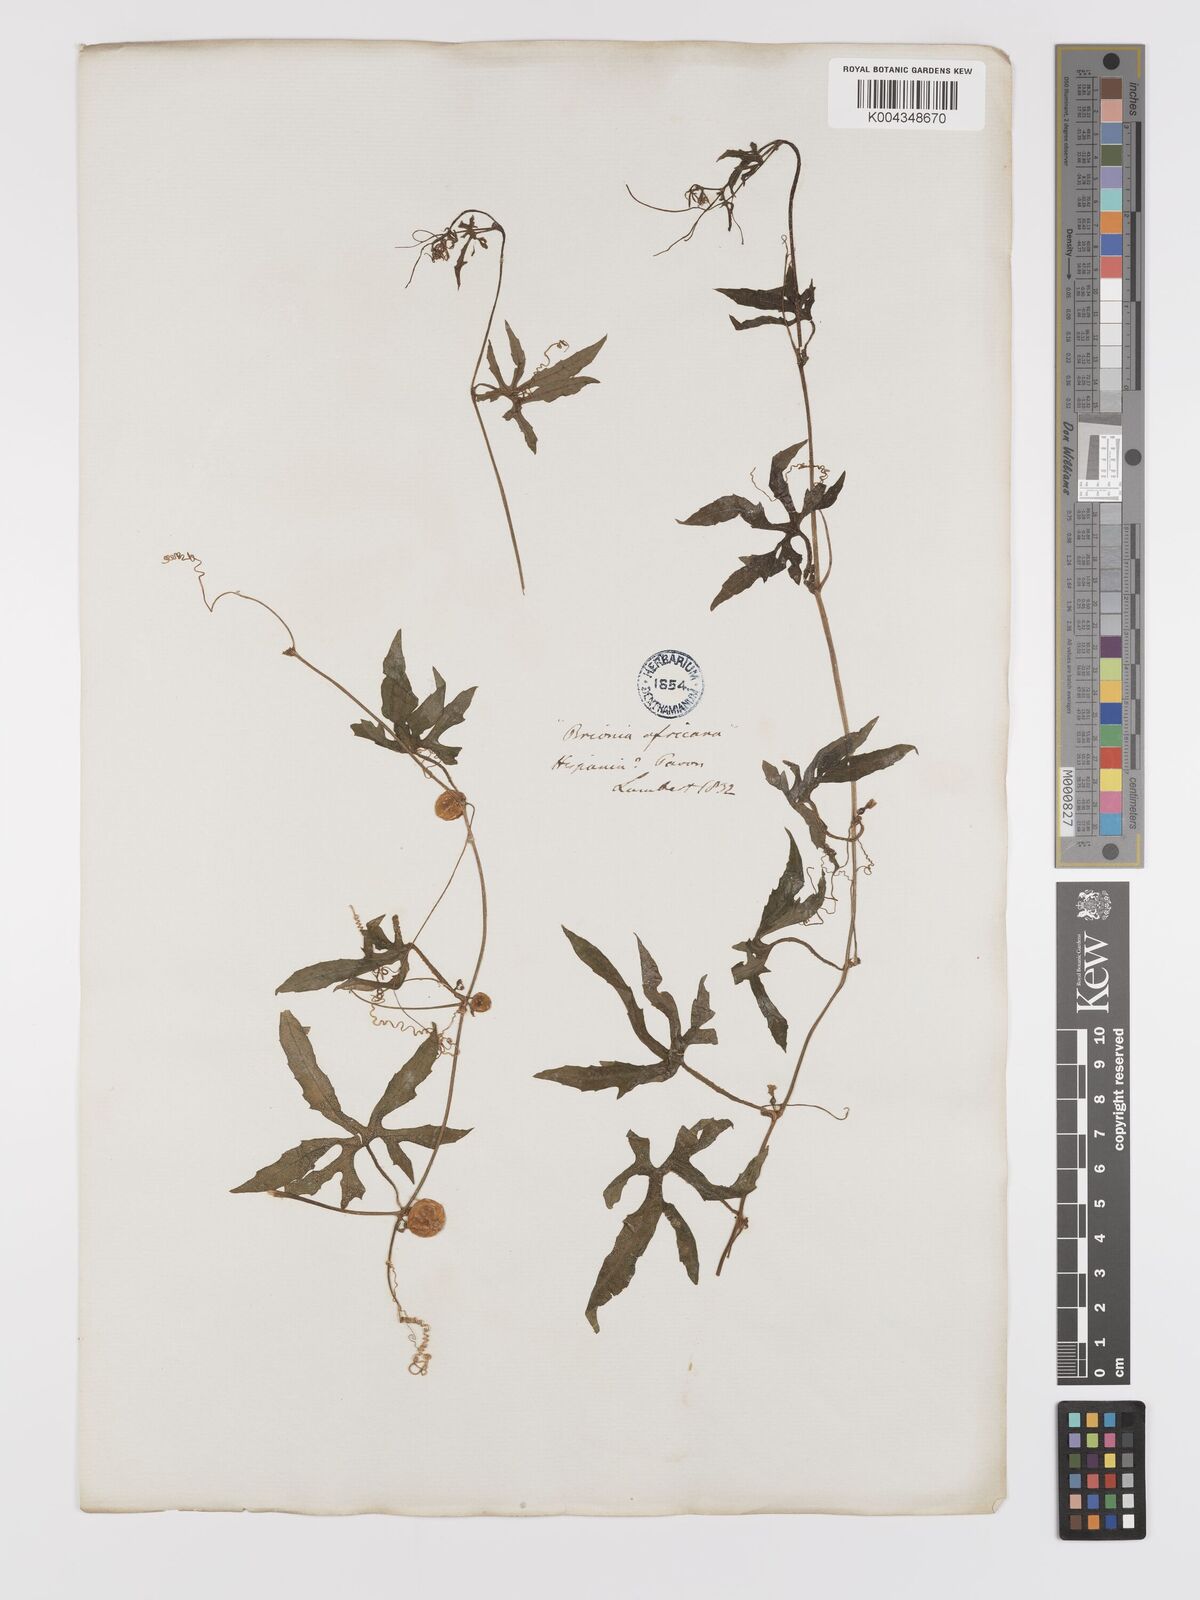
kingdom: Plantae
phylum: Tracheophyta
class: Magnoliopsida
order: Cucurbitales
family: Cucurbitaceae
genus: Diplocyclos
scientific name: Diplocyclos palmatus
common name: Striped-cucumber
